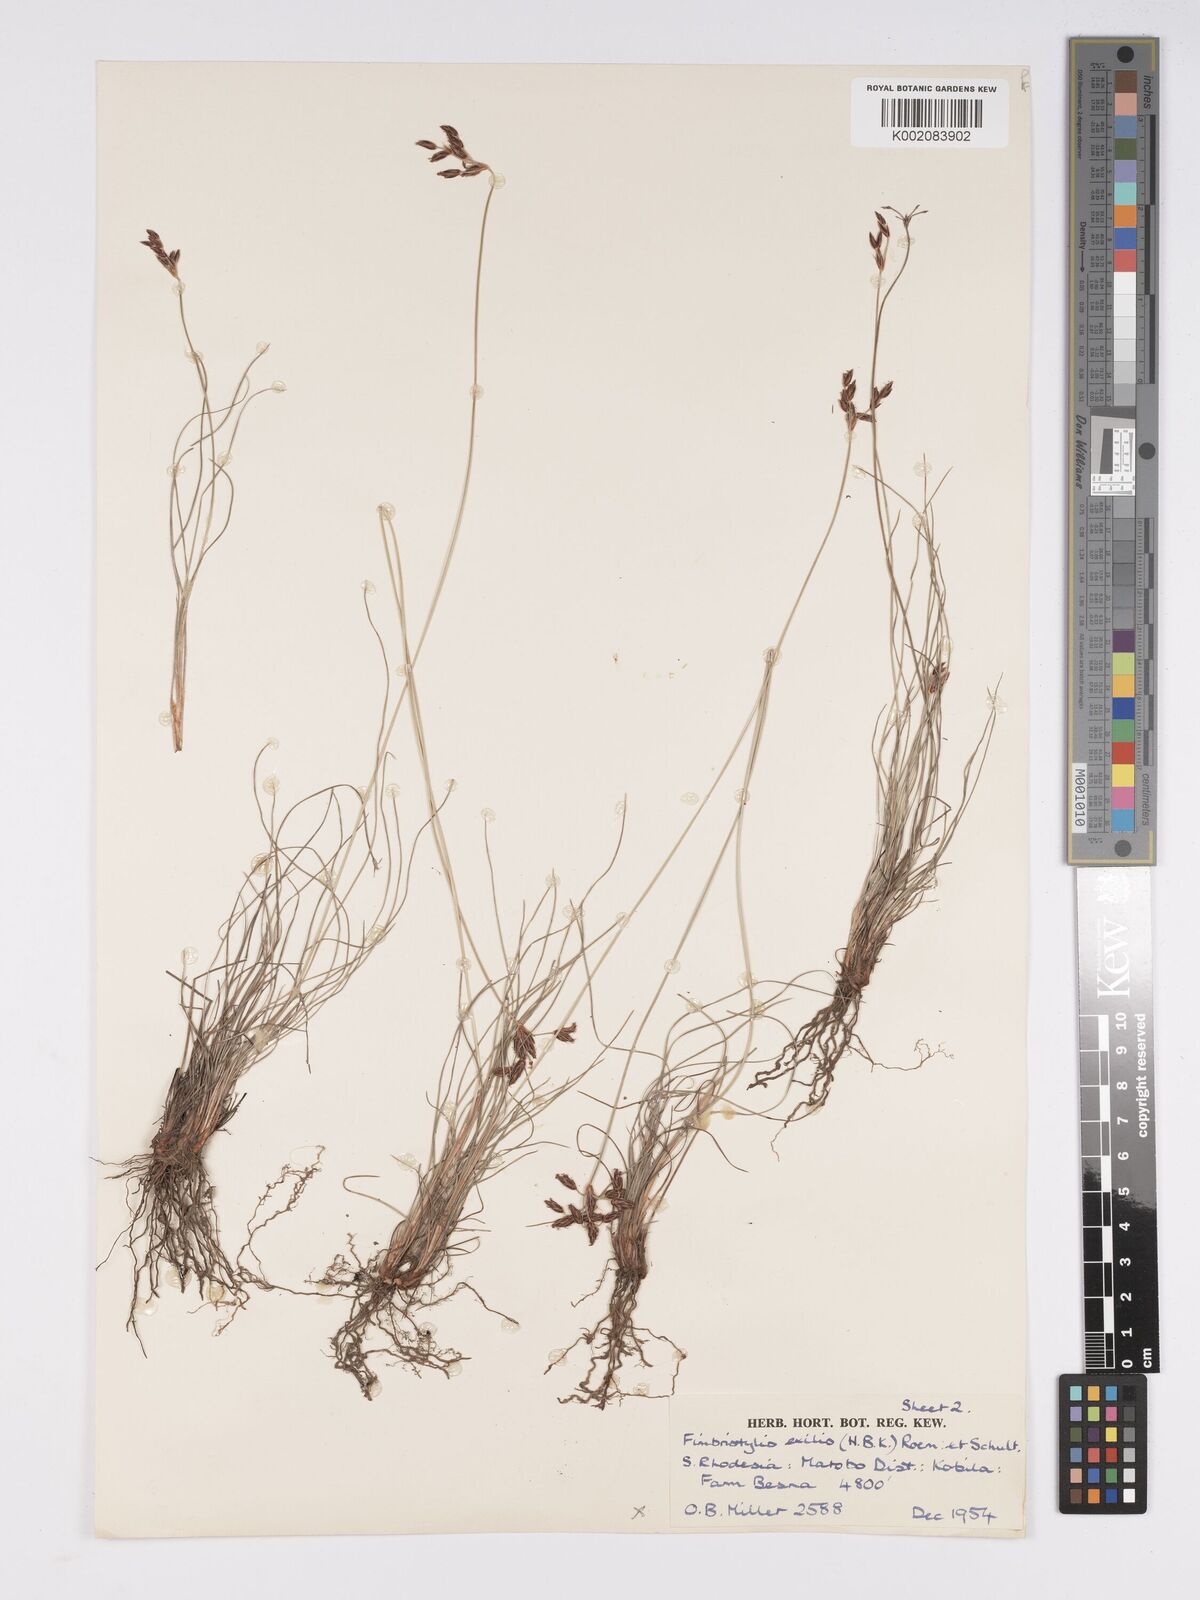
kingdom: Plantae
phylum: Tracheophyta
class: Liliopsida
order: Poales
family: Cyperaceae
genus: Bulbostylis
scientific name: Bulbostylis hispidula
